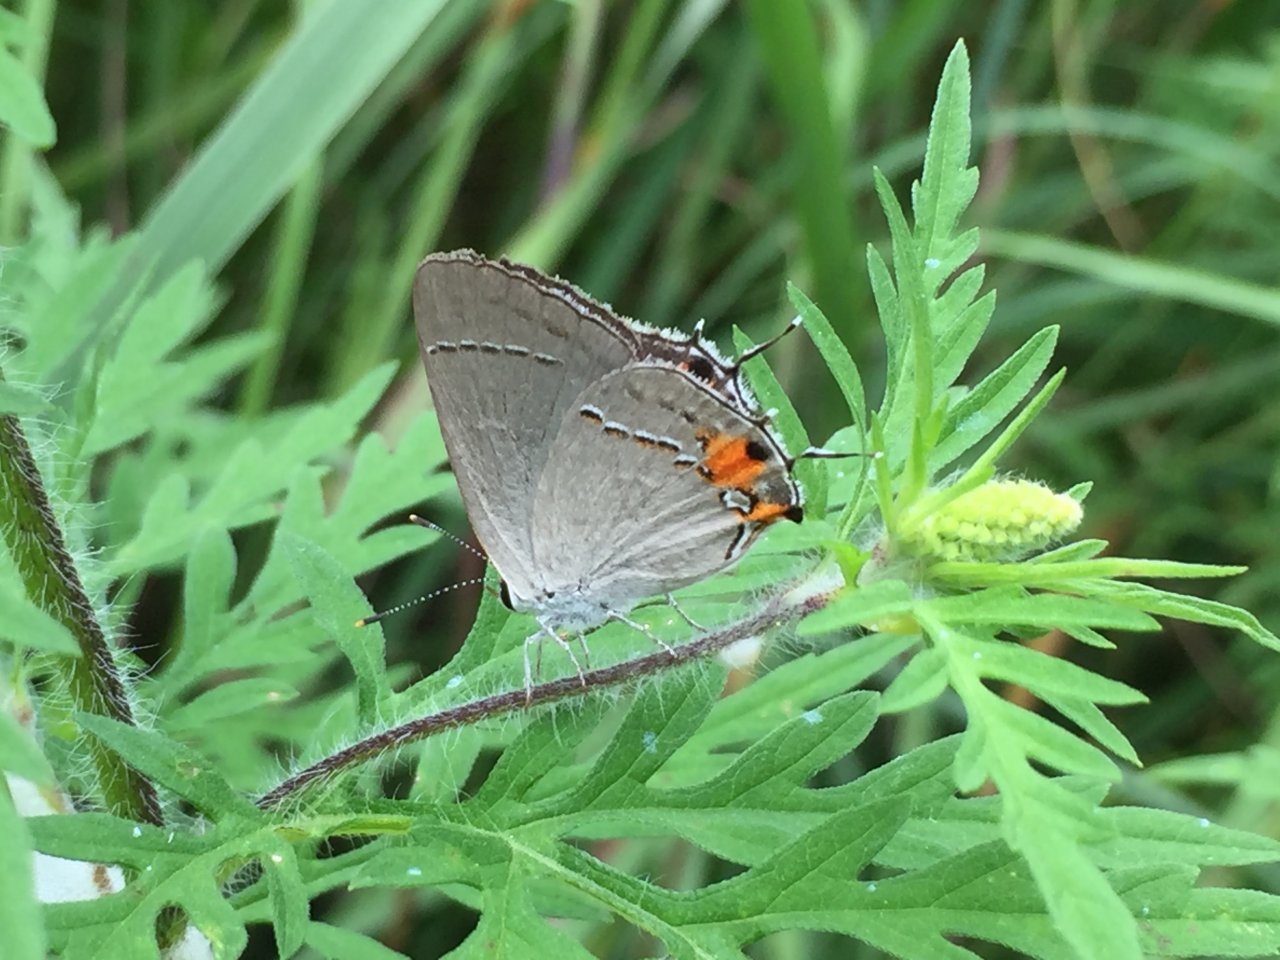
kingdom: Animalia
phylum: Arthropoda
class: Insecta
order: Lepidoptera
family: Lycaenidae
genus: Strymon
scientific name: Strymon melinus
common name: Gray Hairstreak
